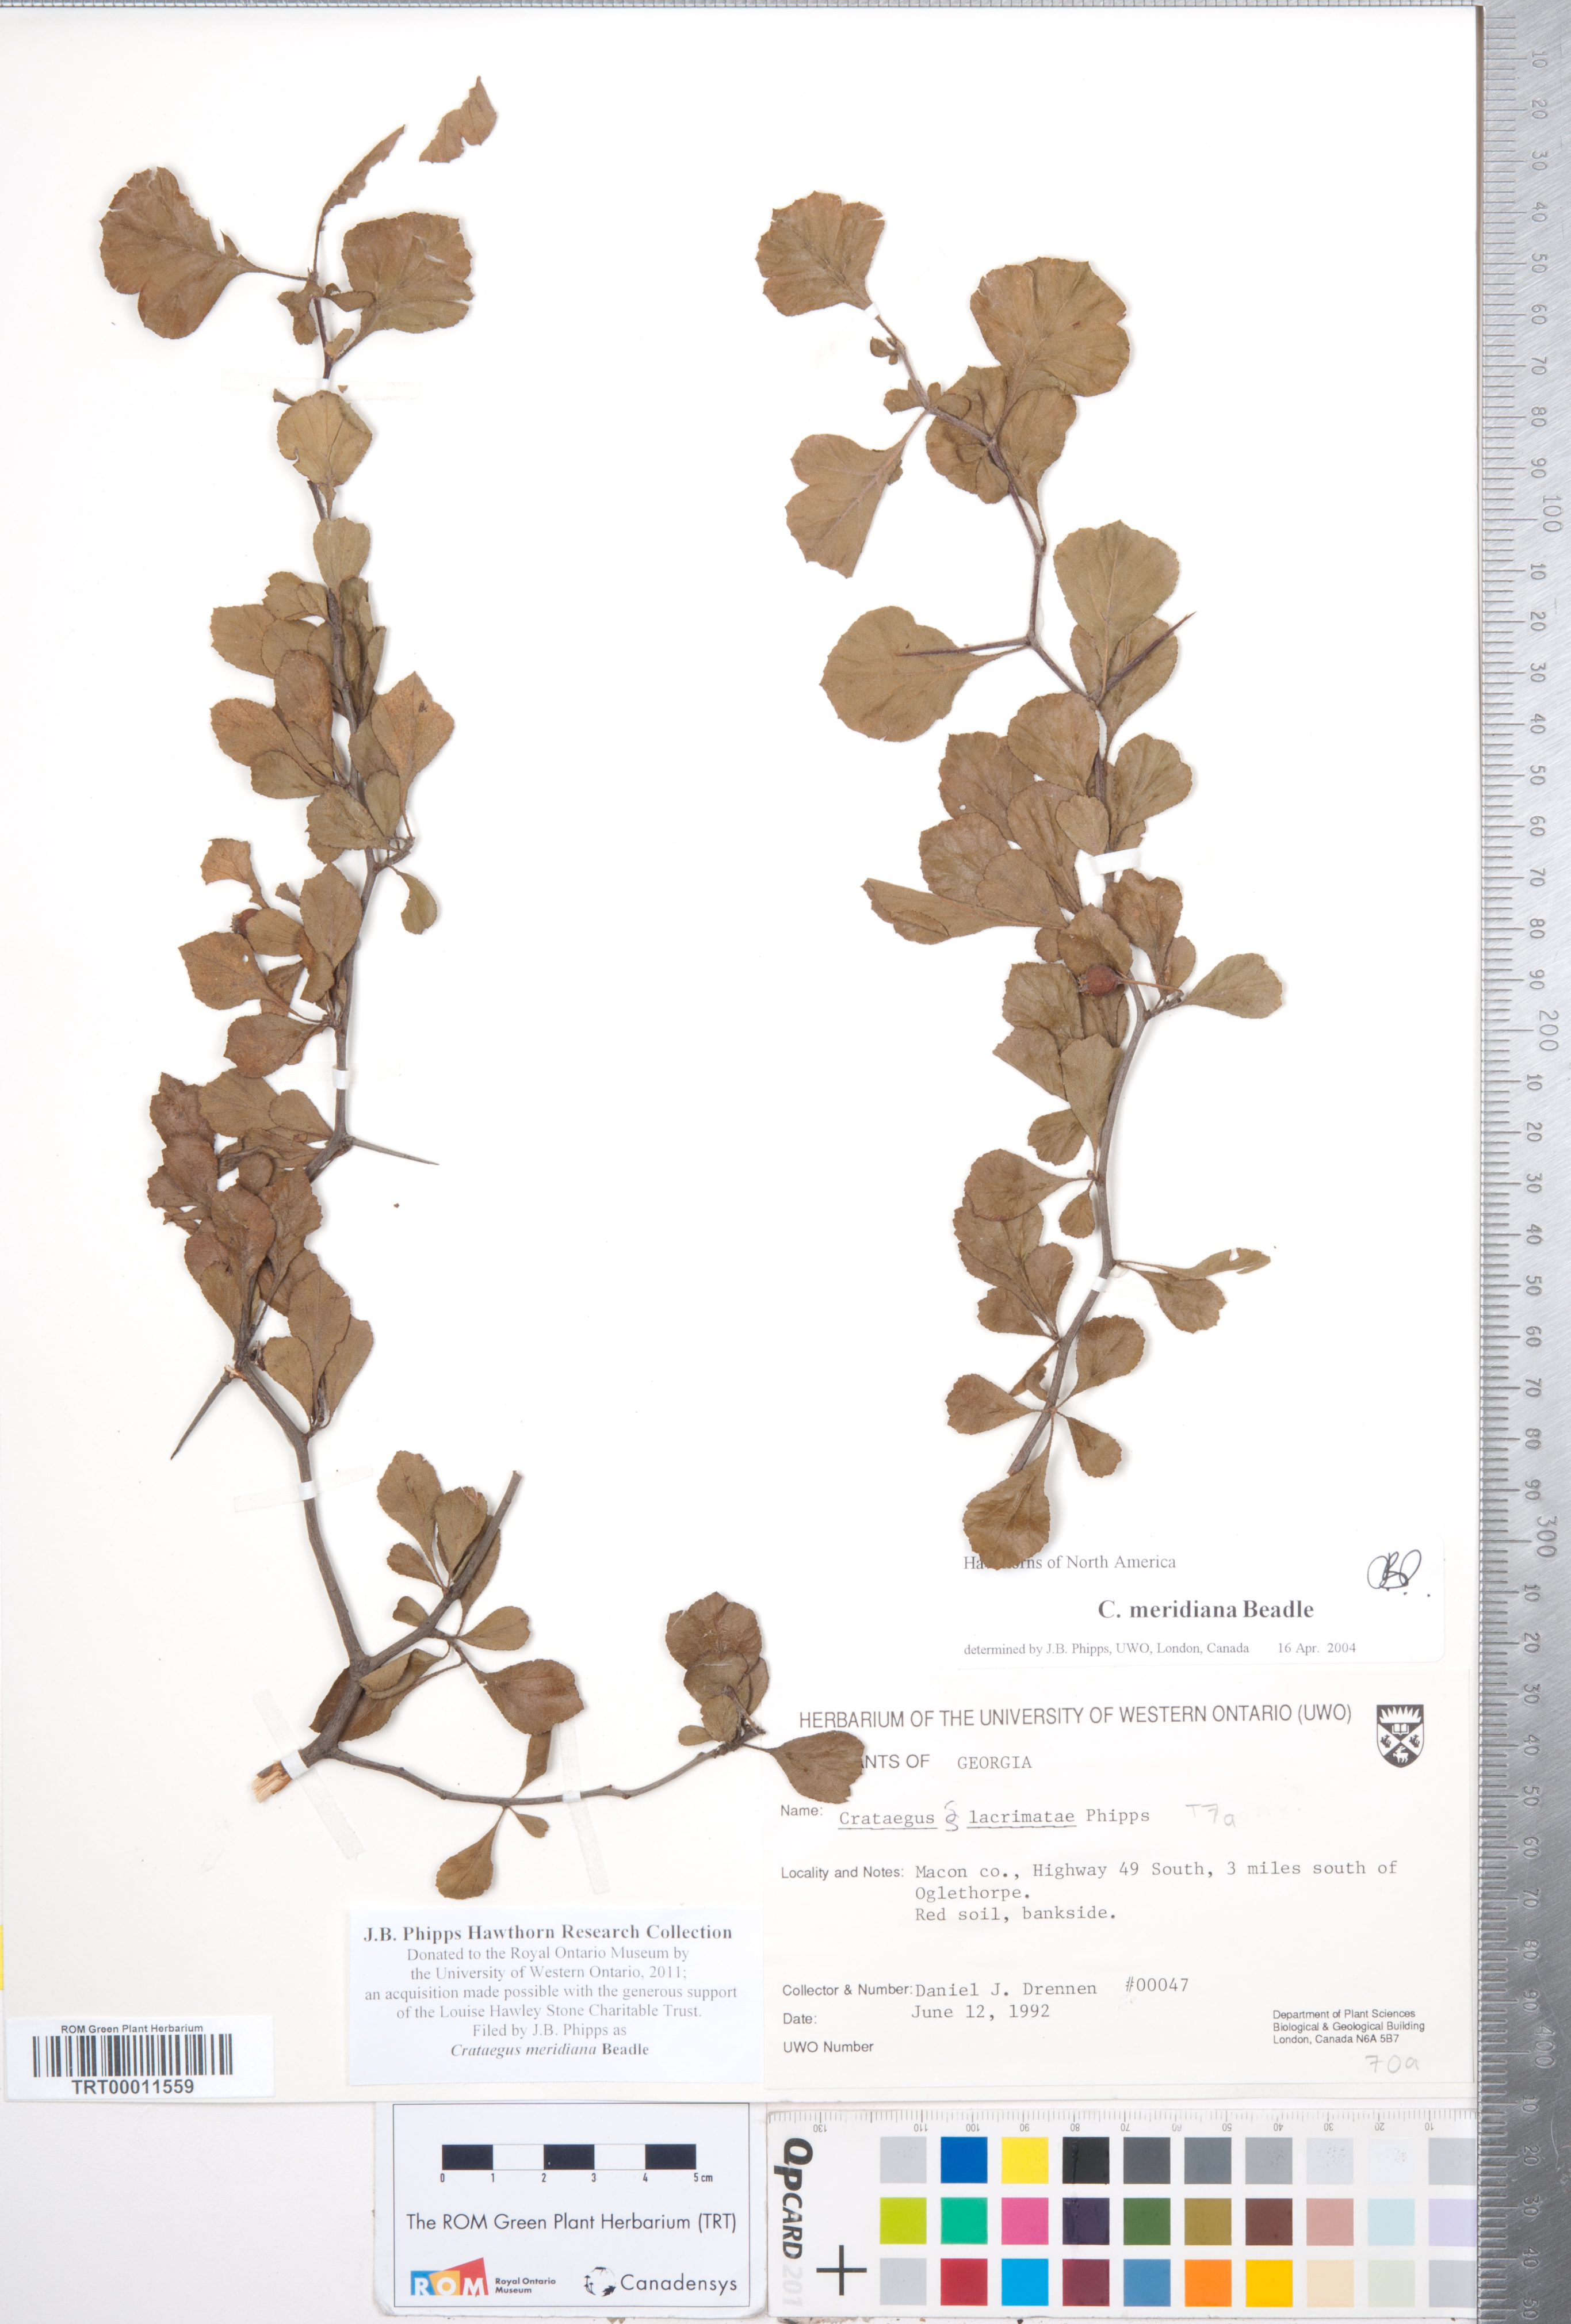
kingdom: Plantae
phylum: Tracheophyta
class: Magnoliopsida
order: Rosales
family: Rosaceae
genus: Crataegus
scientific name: Crataegus lassa
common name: Florida hawthorn
